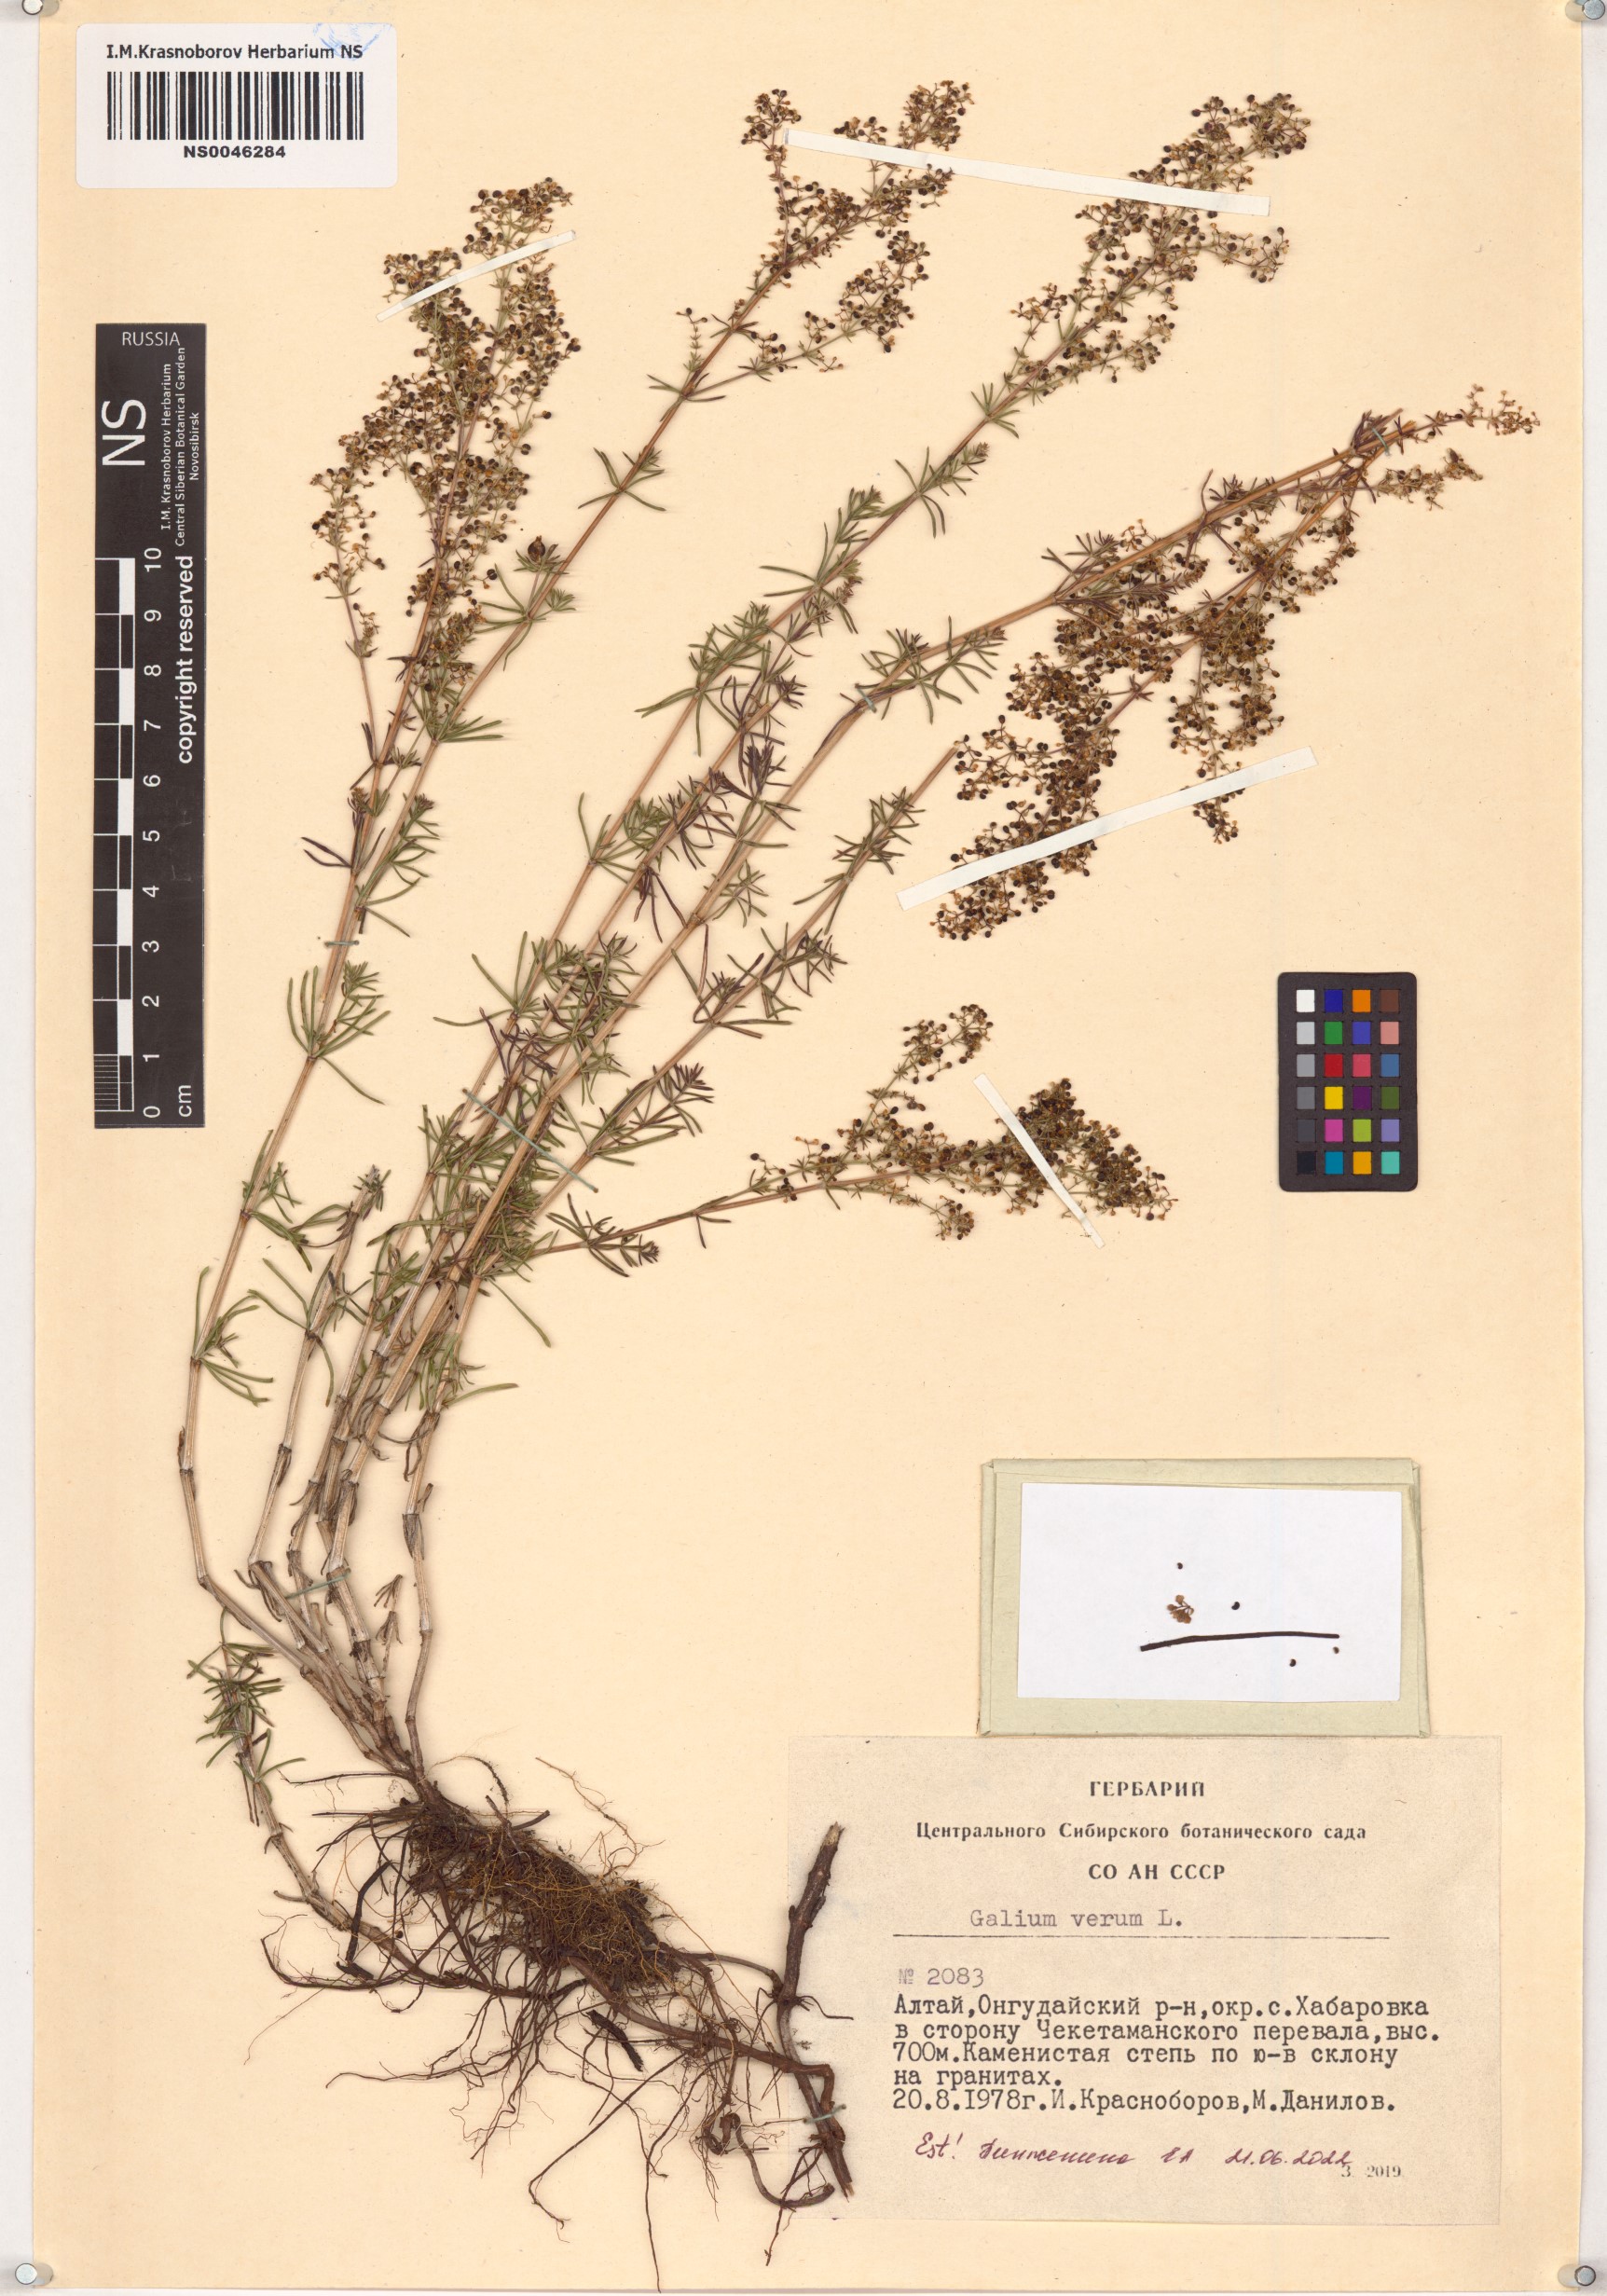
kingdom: Plantae
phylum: Tracheophyta
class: Magnoliopsida
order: Gentianales
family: Rubiaceae
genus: Galium
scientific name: Galium verum
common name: Lady's bedstraw
